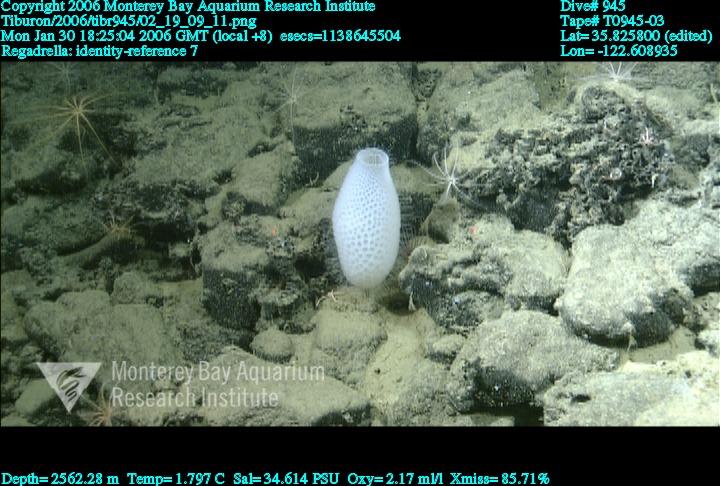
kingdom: Animalia
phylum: Porifera
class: Hexactinellida
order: Lyssacinosida
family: Euplectellidae
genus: Regadrella
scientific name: Regadrella
